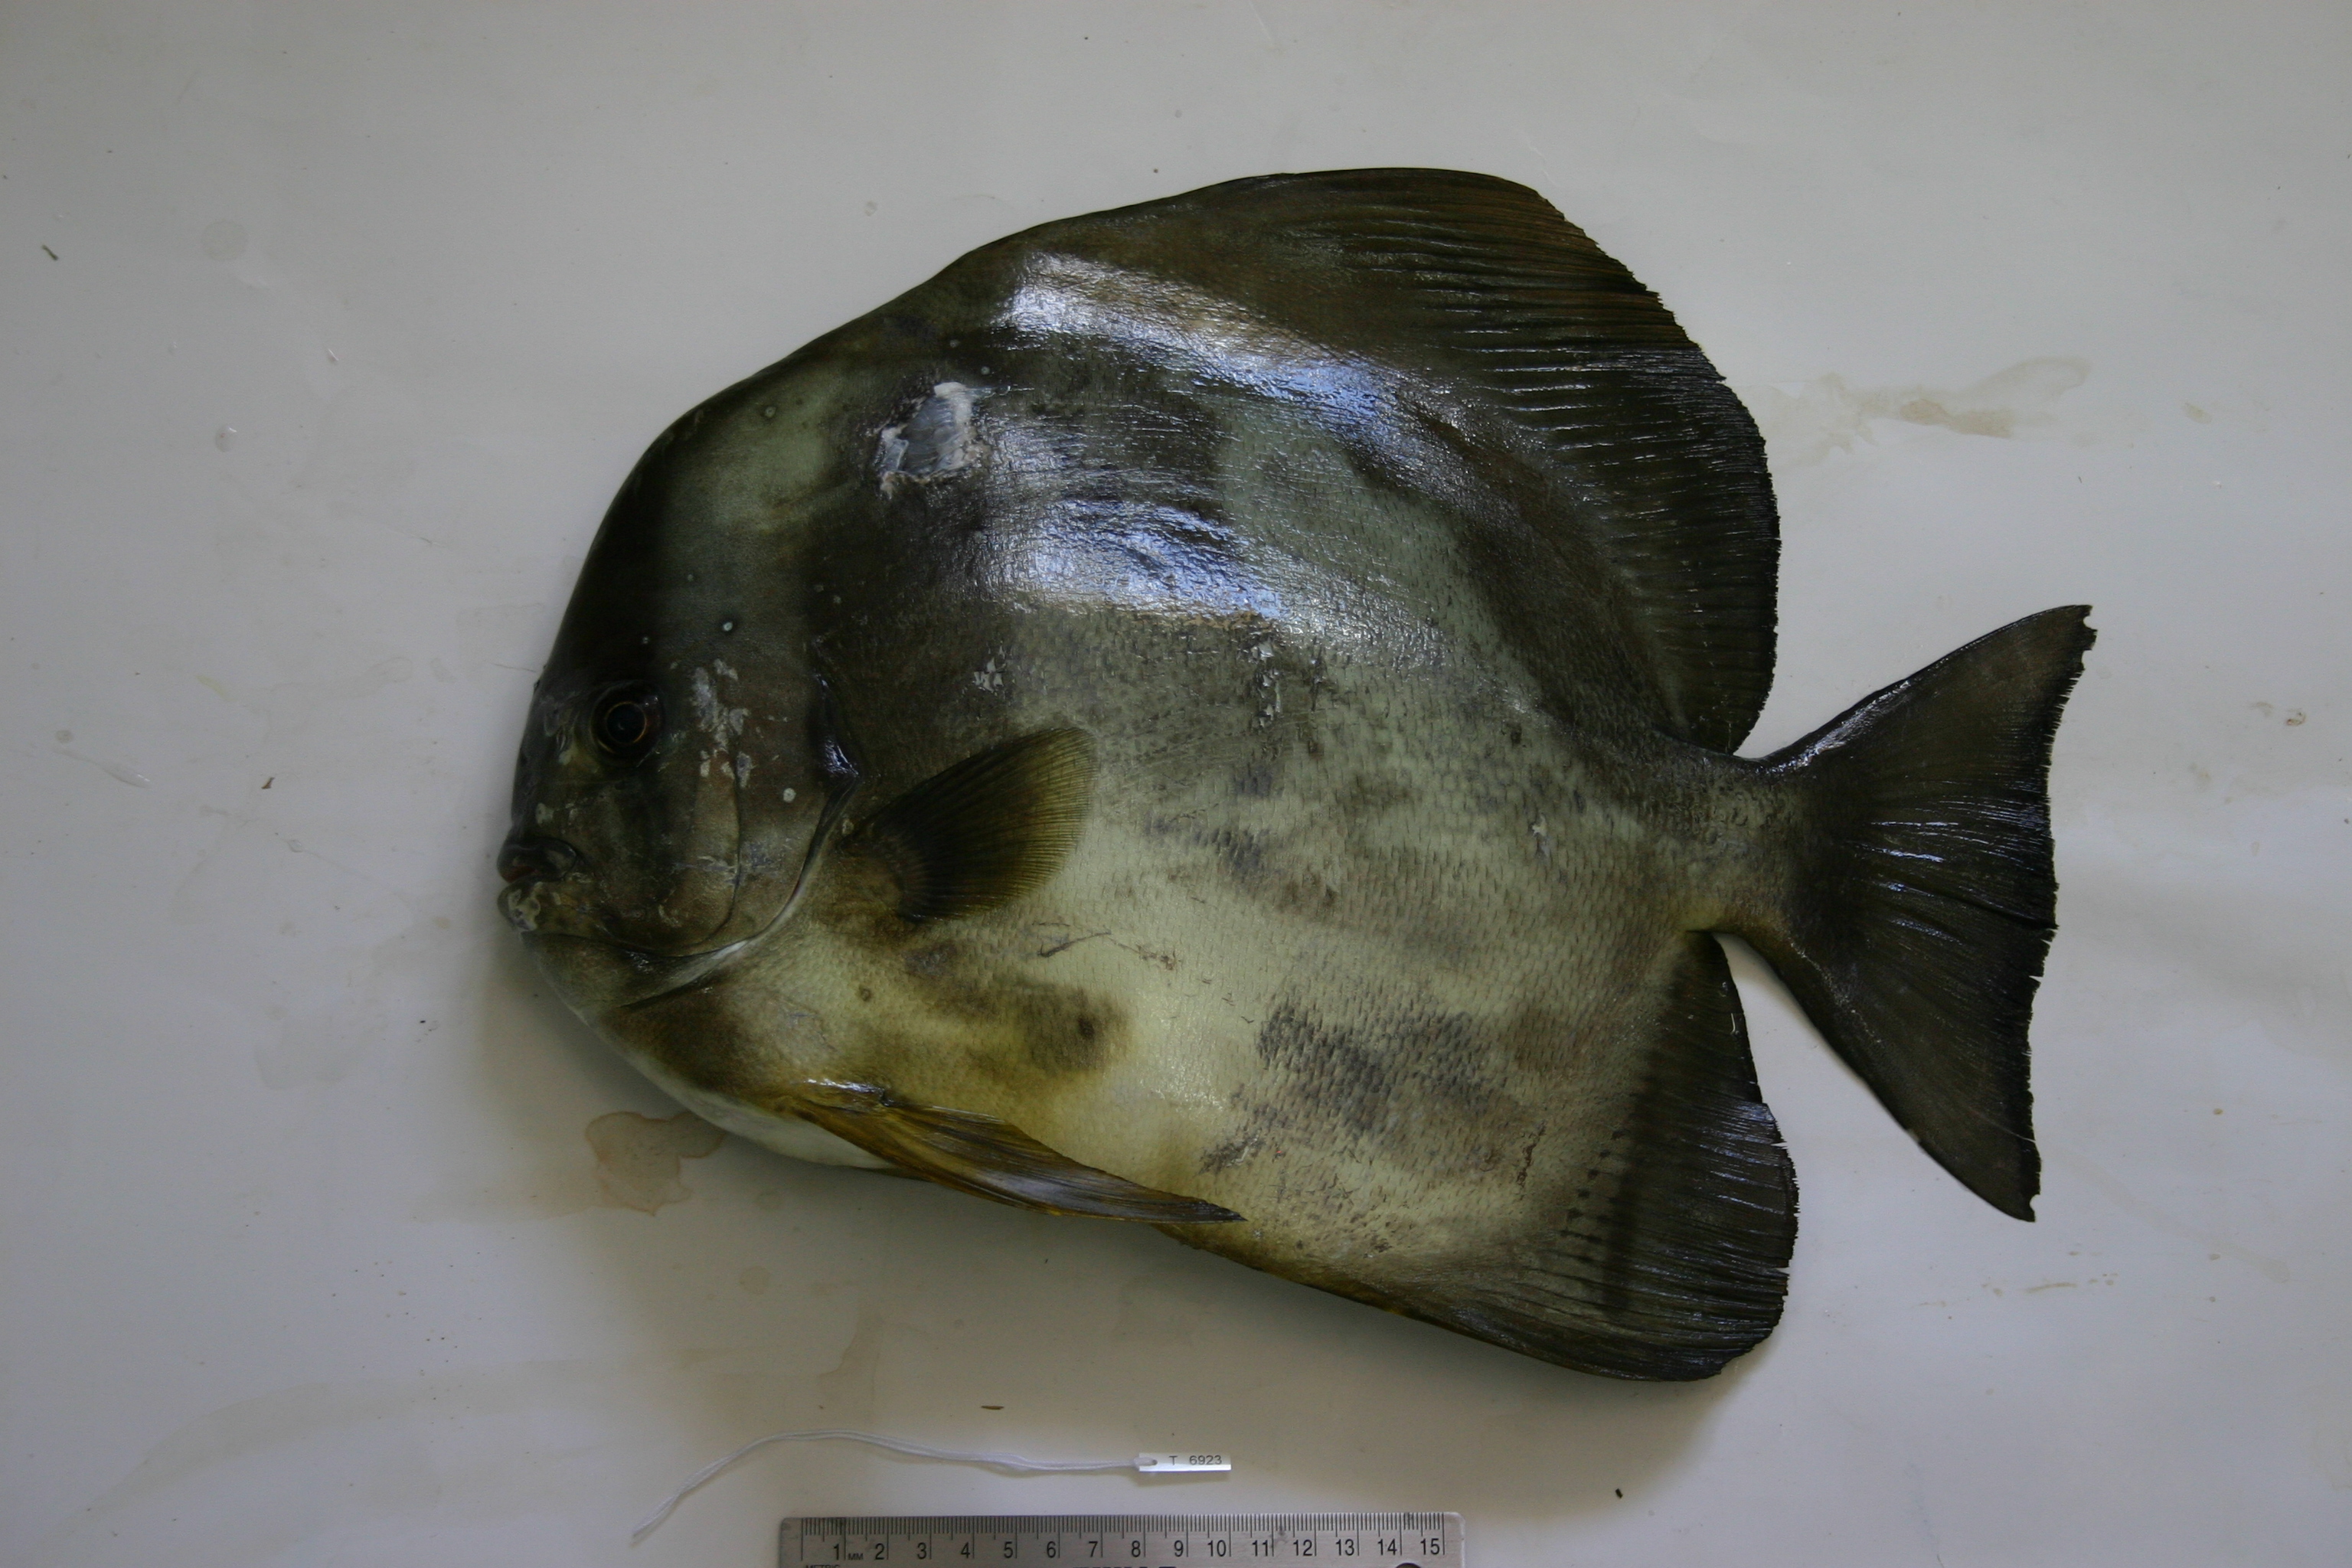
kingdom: Animalia
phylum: Chordata
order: Perciformes
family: Ephippidae
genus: Platax
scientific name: Platax teira
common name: Longfin baitfish
